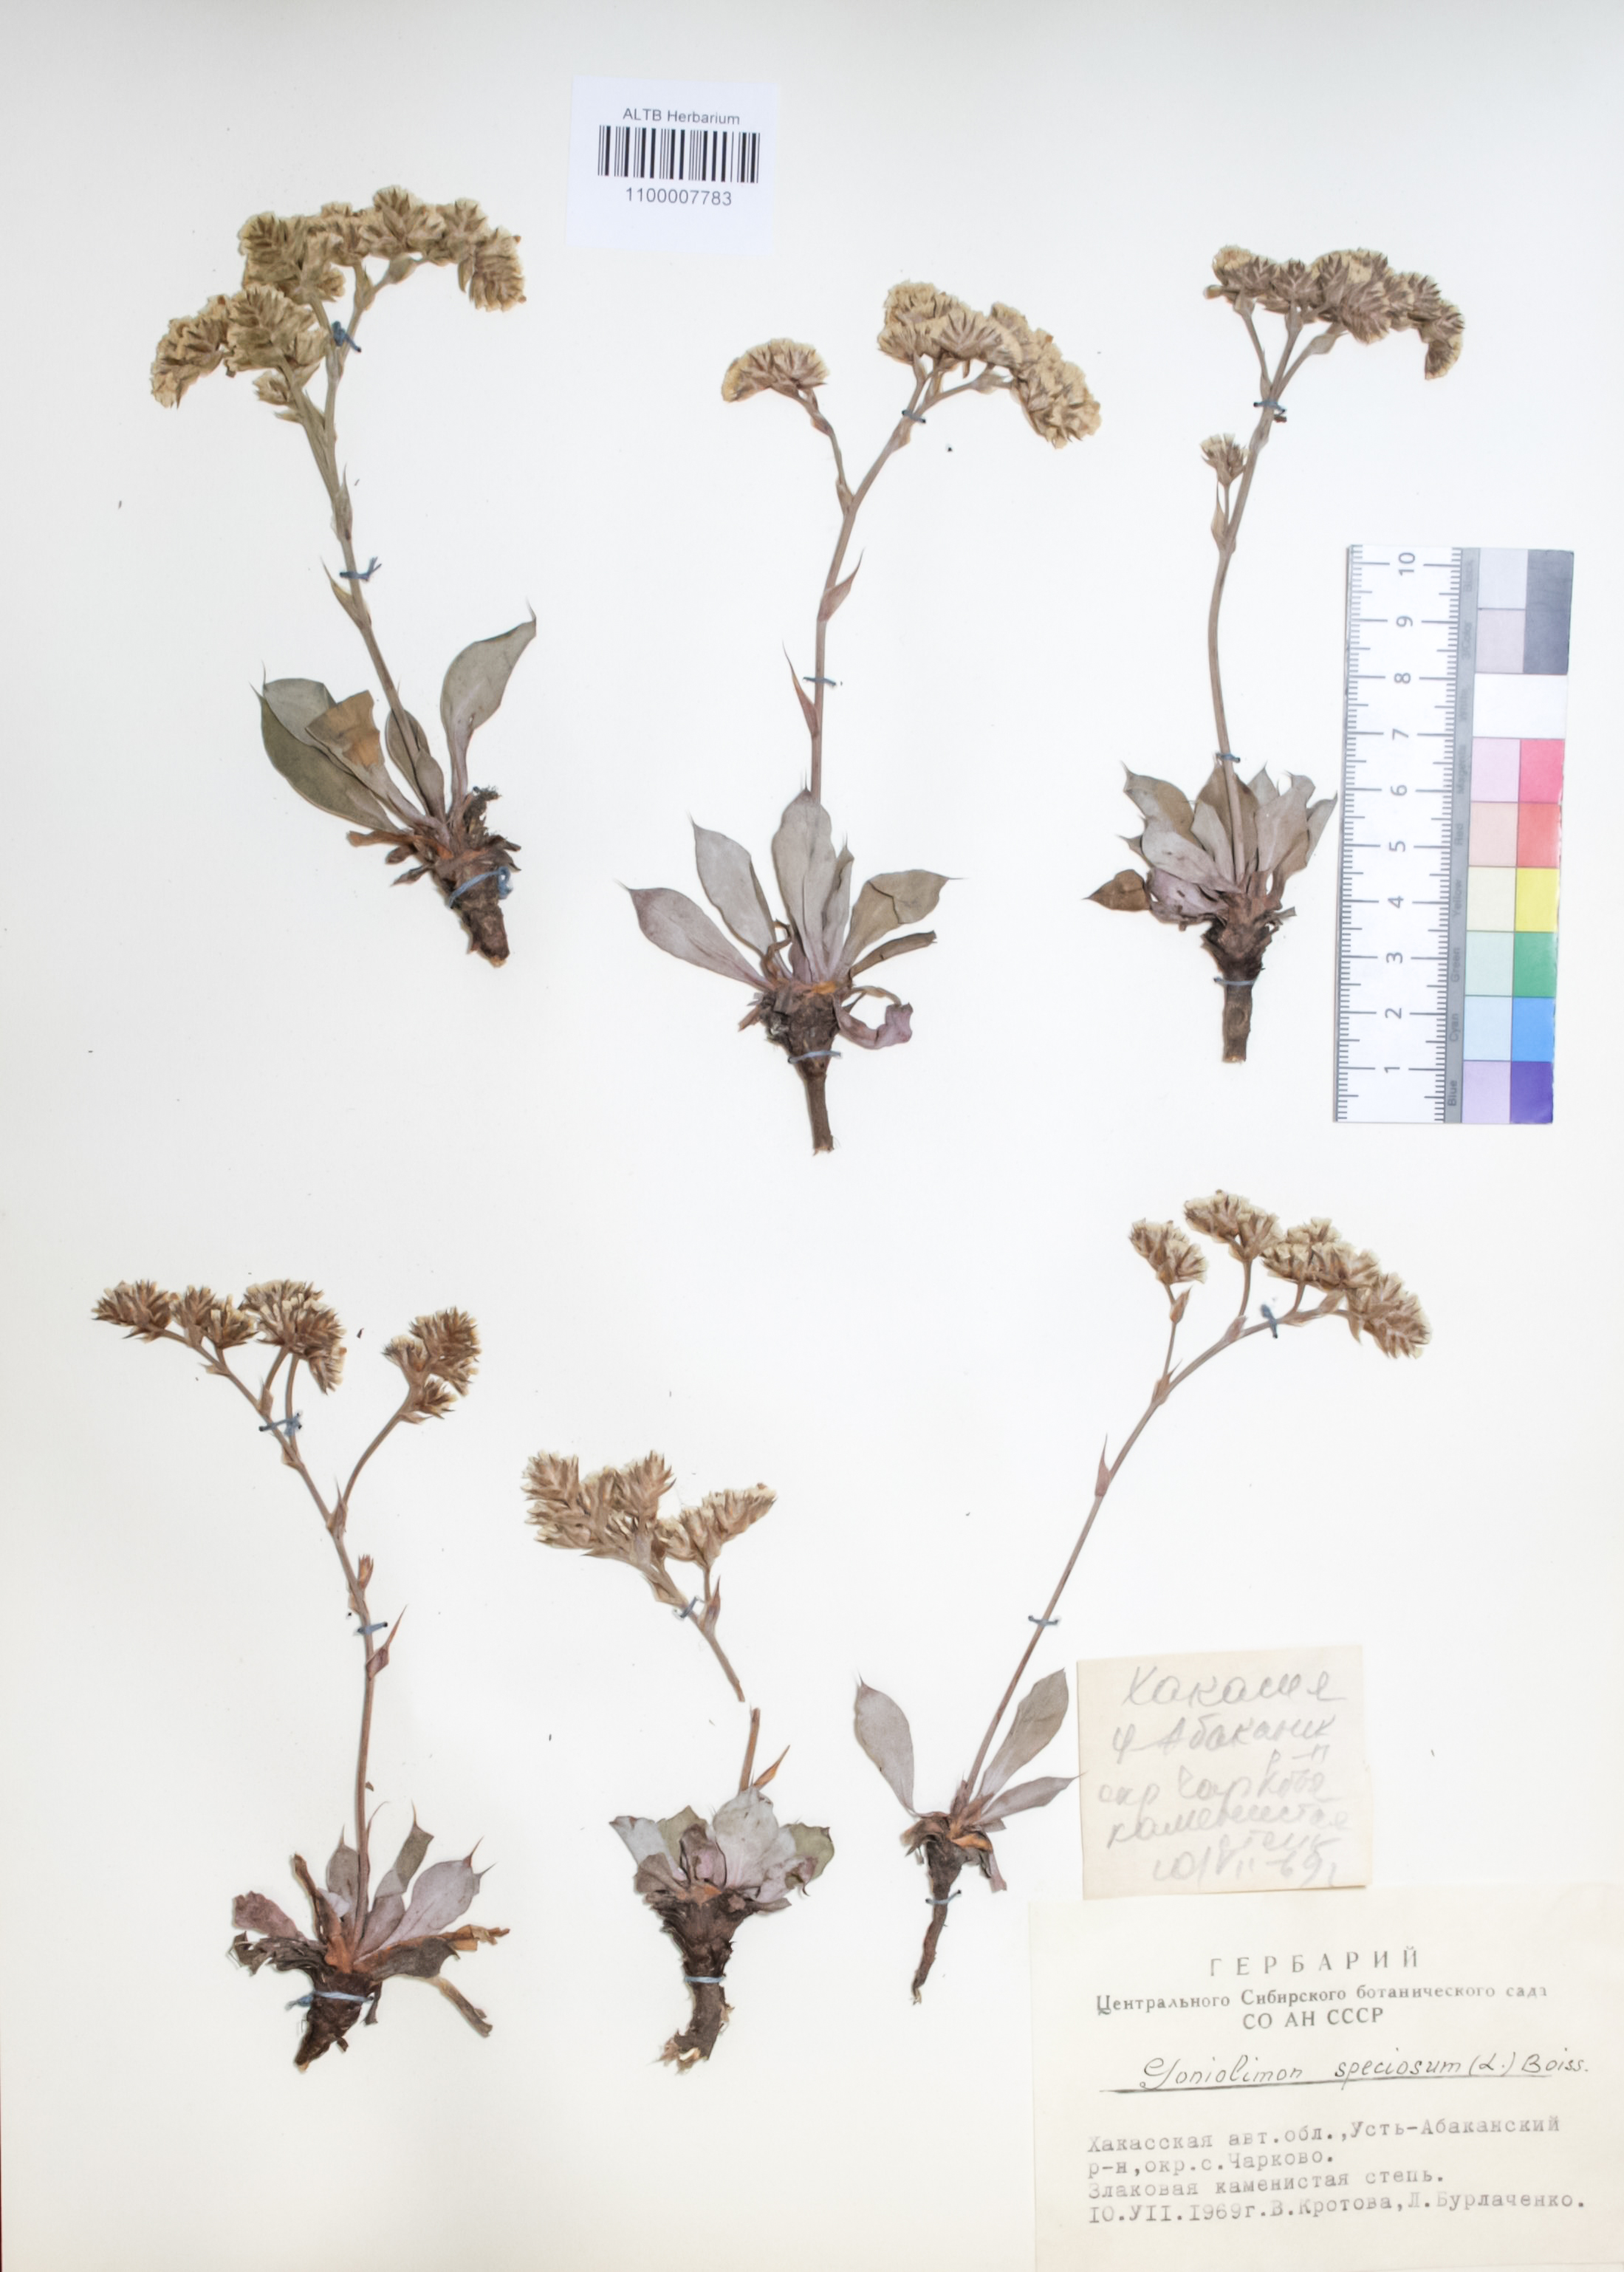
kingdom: Plantae
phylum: Tracheophyta
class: Magnoliopsida
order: Caryophyllales
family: Plumbaginaceae
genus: Goniolimon
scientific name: Goniolimon speciosum
